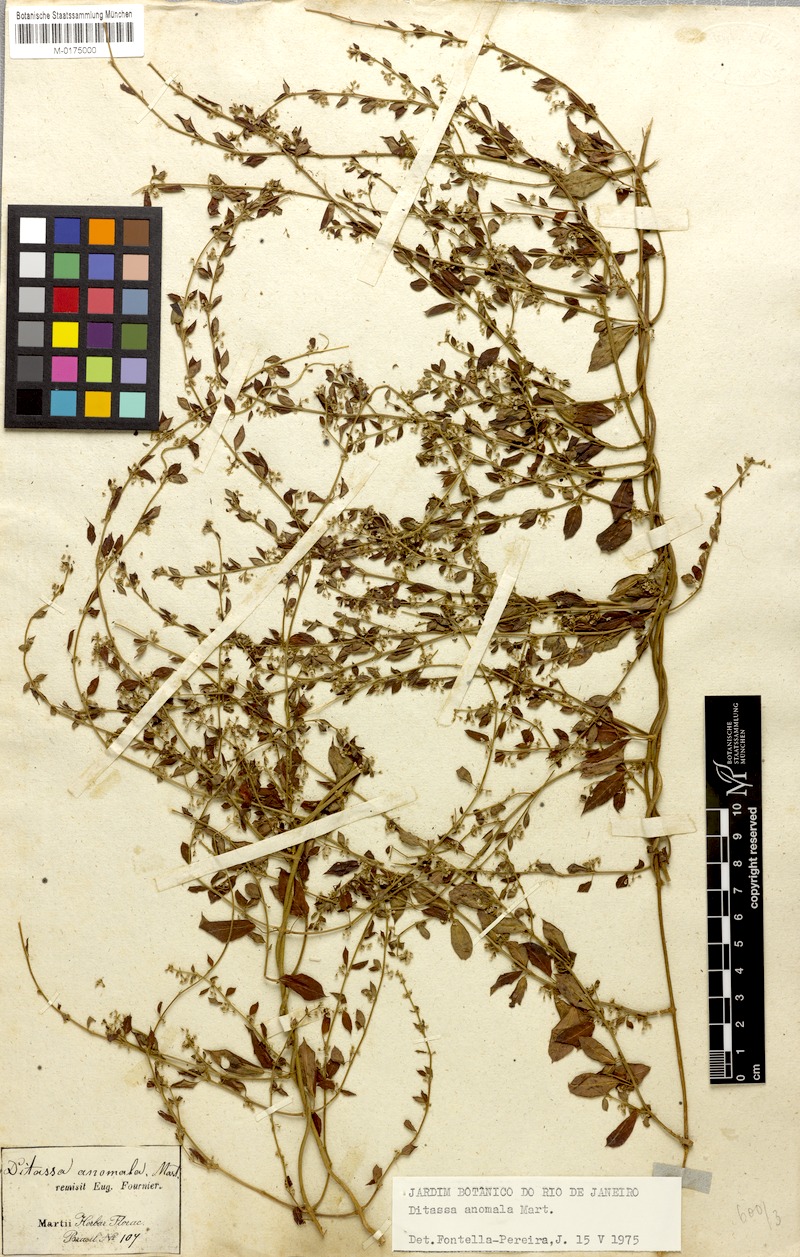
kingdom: Plantae
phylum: Tracheophyta
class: Magnoliopsida
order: Gentianales
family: Apocynaceae
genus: Metastelma
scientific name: Metastelma burchellii
